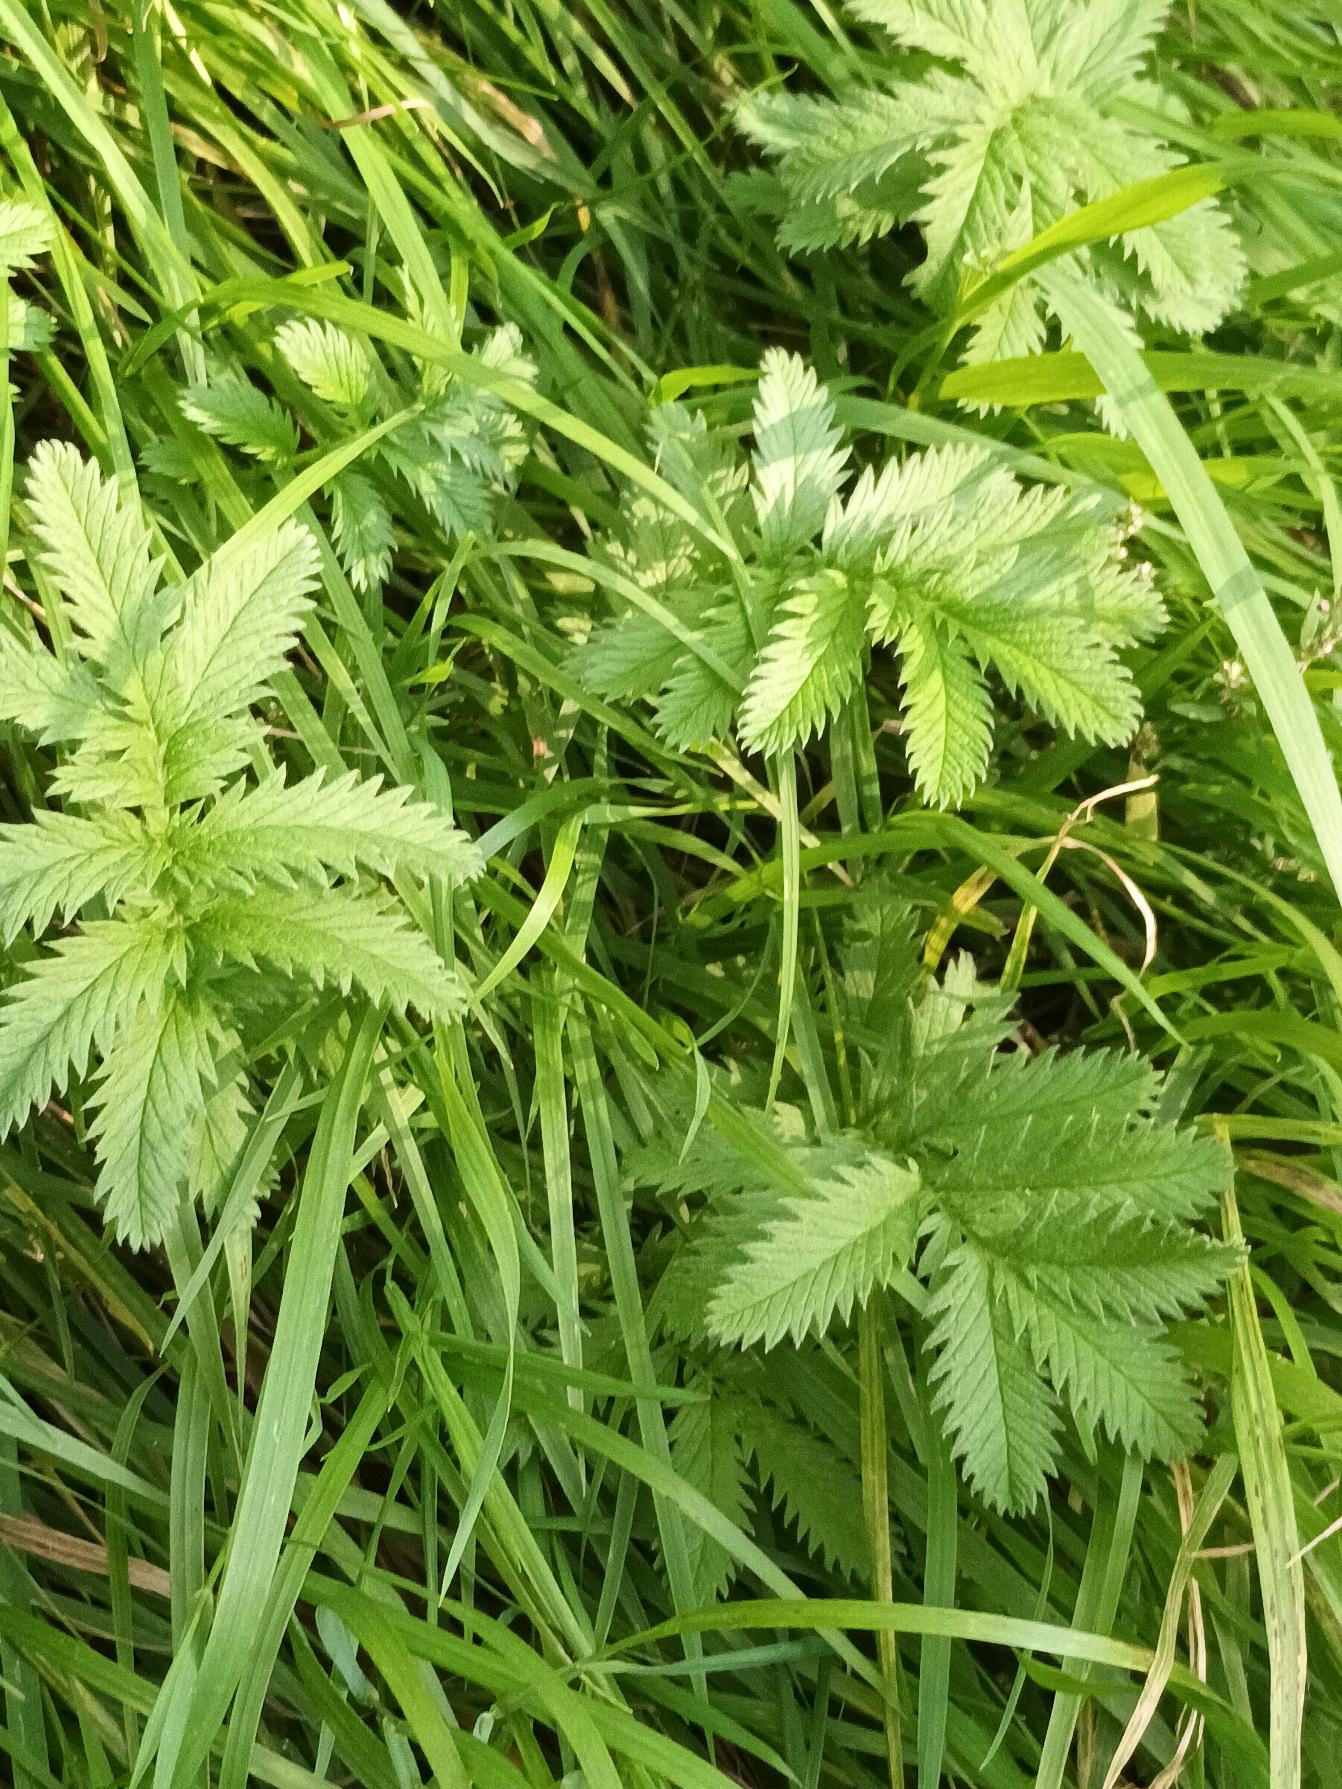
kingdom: Plantae
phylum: Tracheophyta
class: Magnoliopsida
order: Rosales
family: Rosaceae
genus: Argentina
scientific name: Argentina anserina
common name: Gåsepotentil
